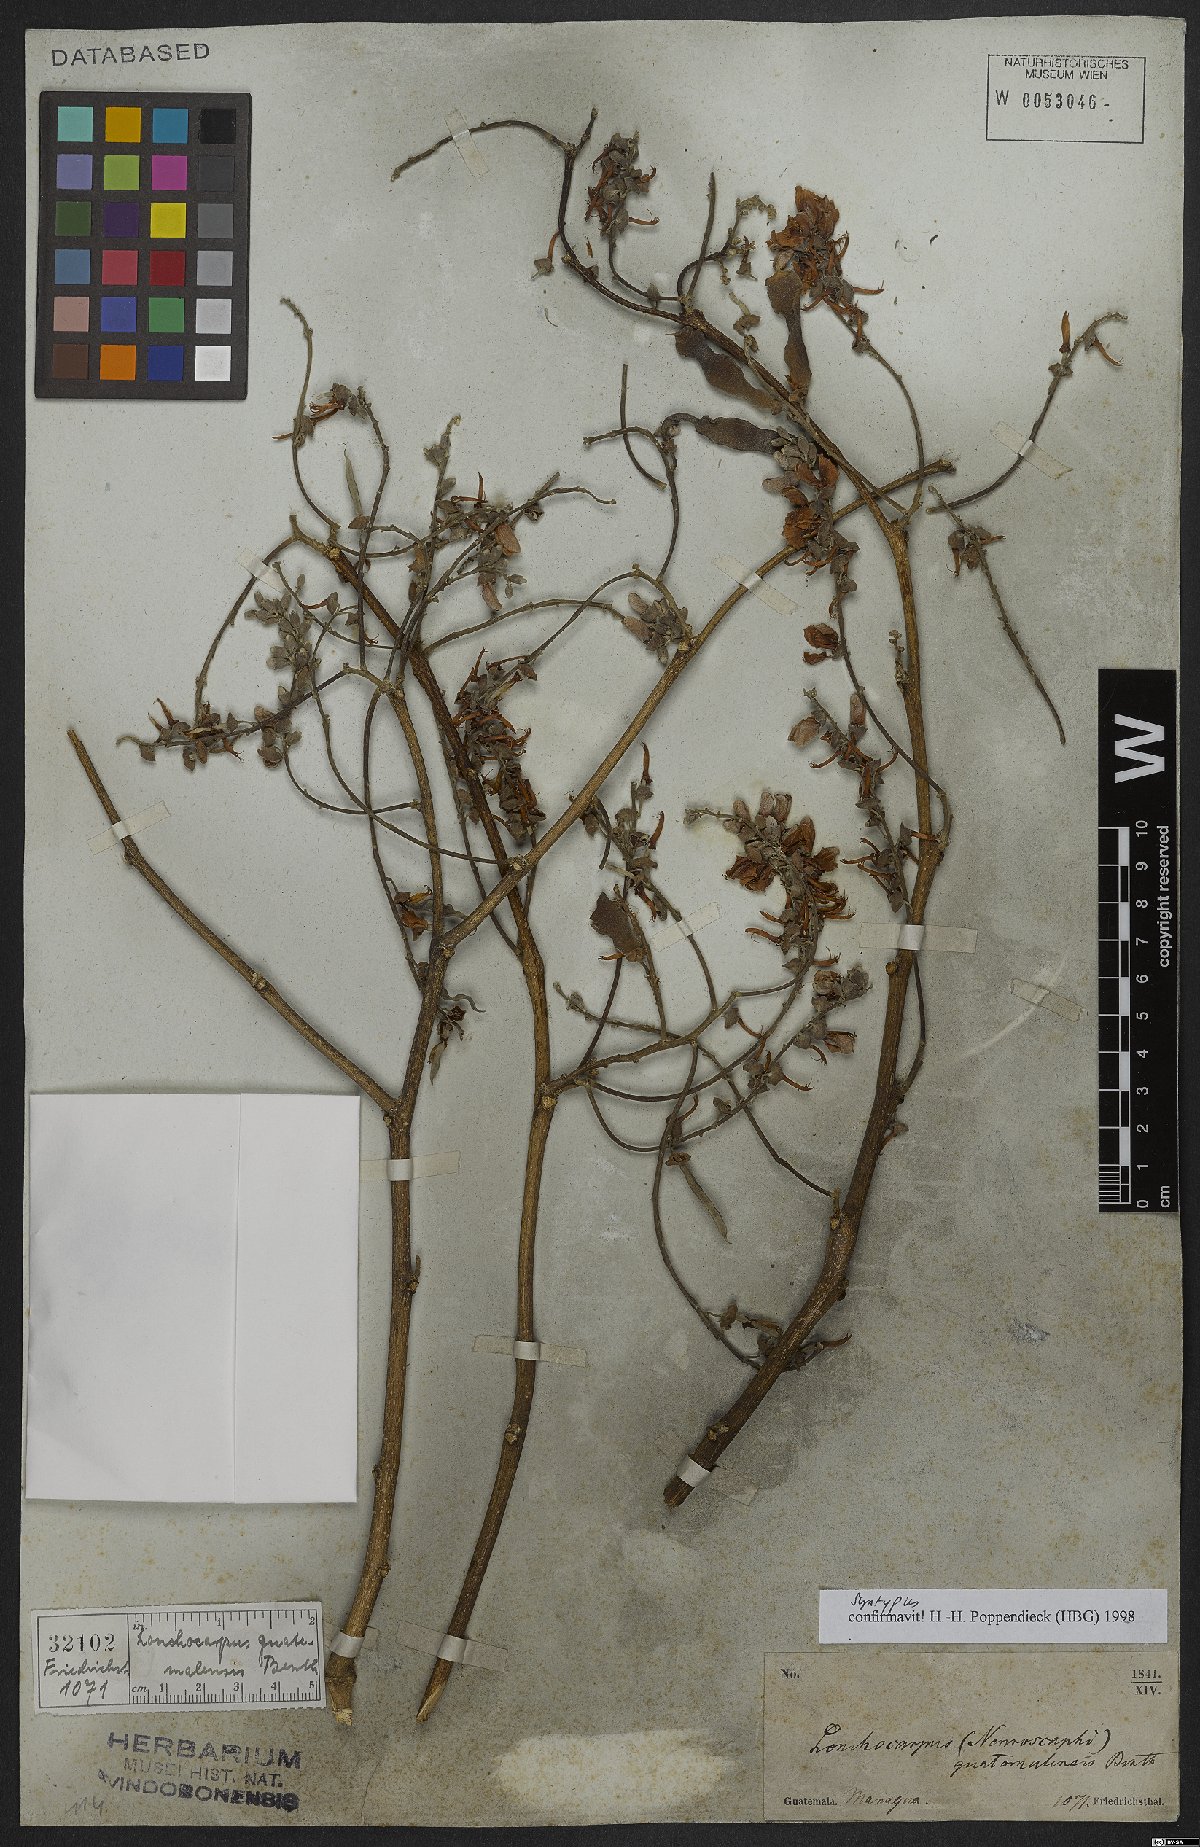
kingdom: Plantae
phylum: Tracheophyta
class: Magnoliopsida
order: Fabales
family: Fabaceae
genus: Lonchocarpus
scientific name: Lonchocarpus guatemalensis
